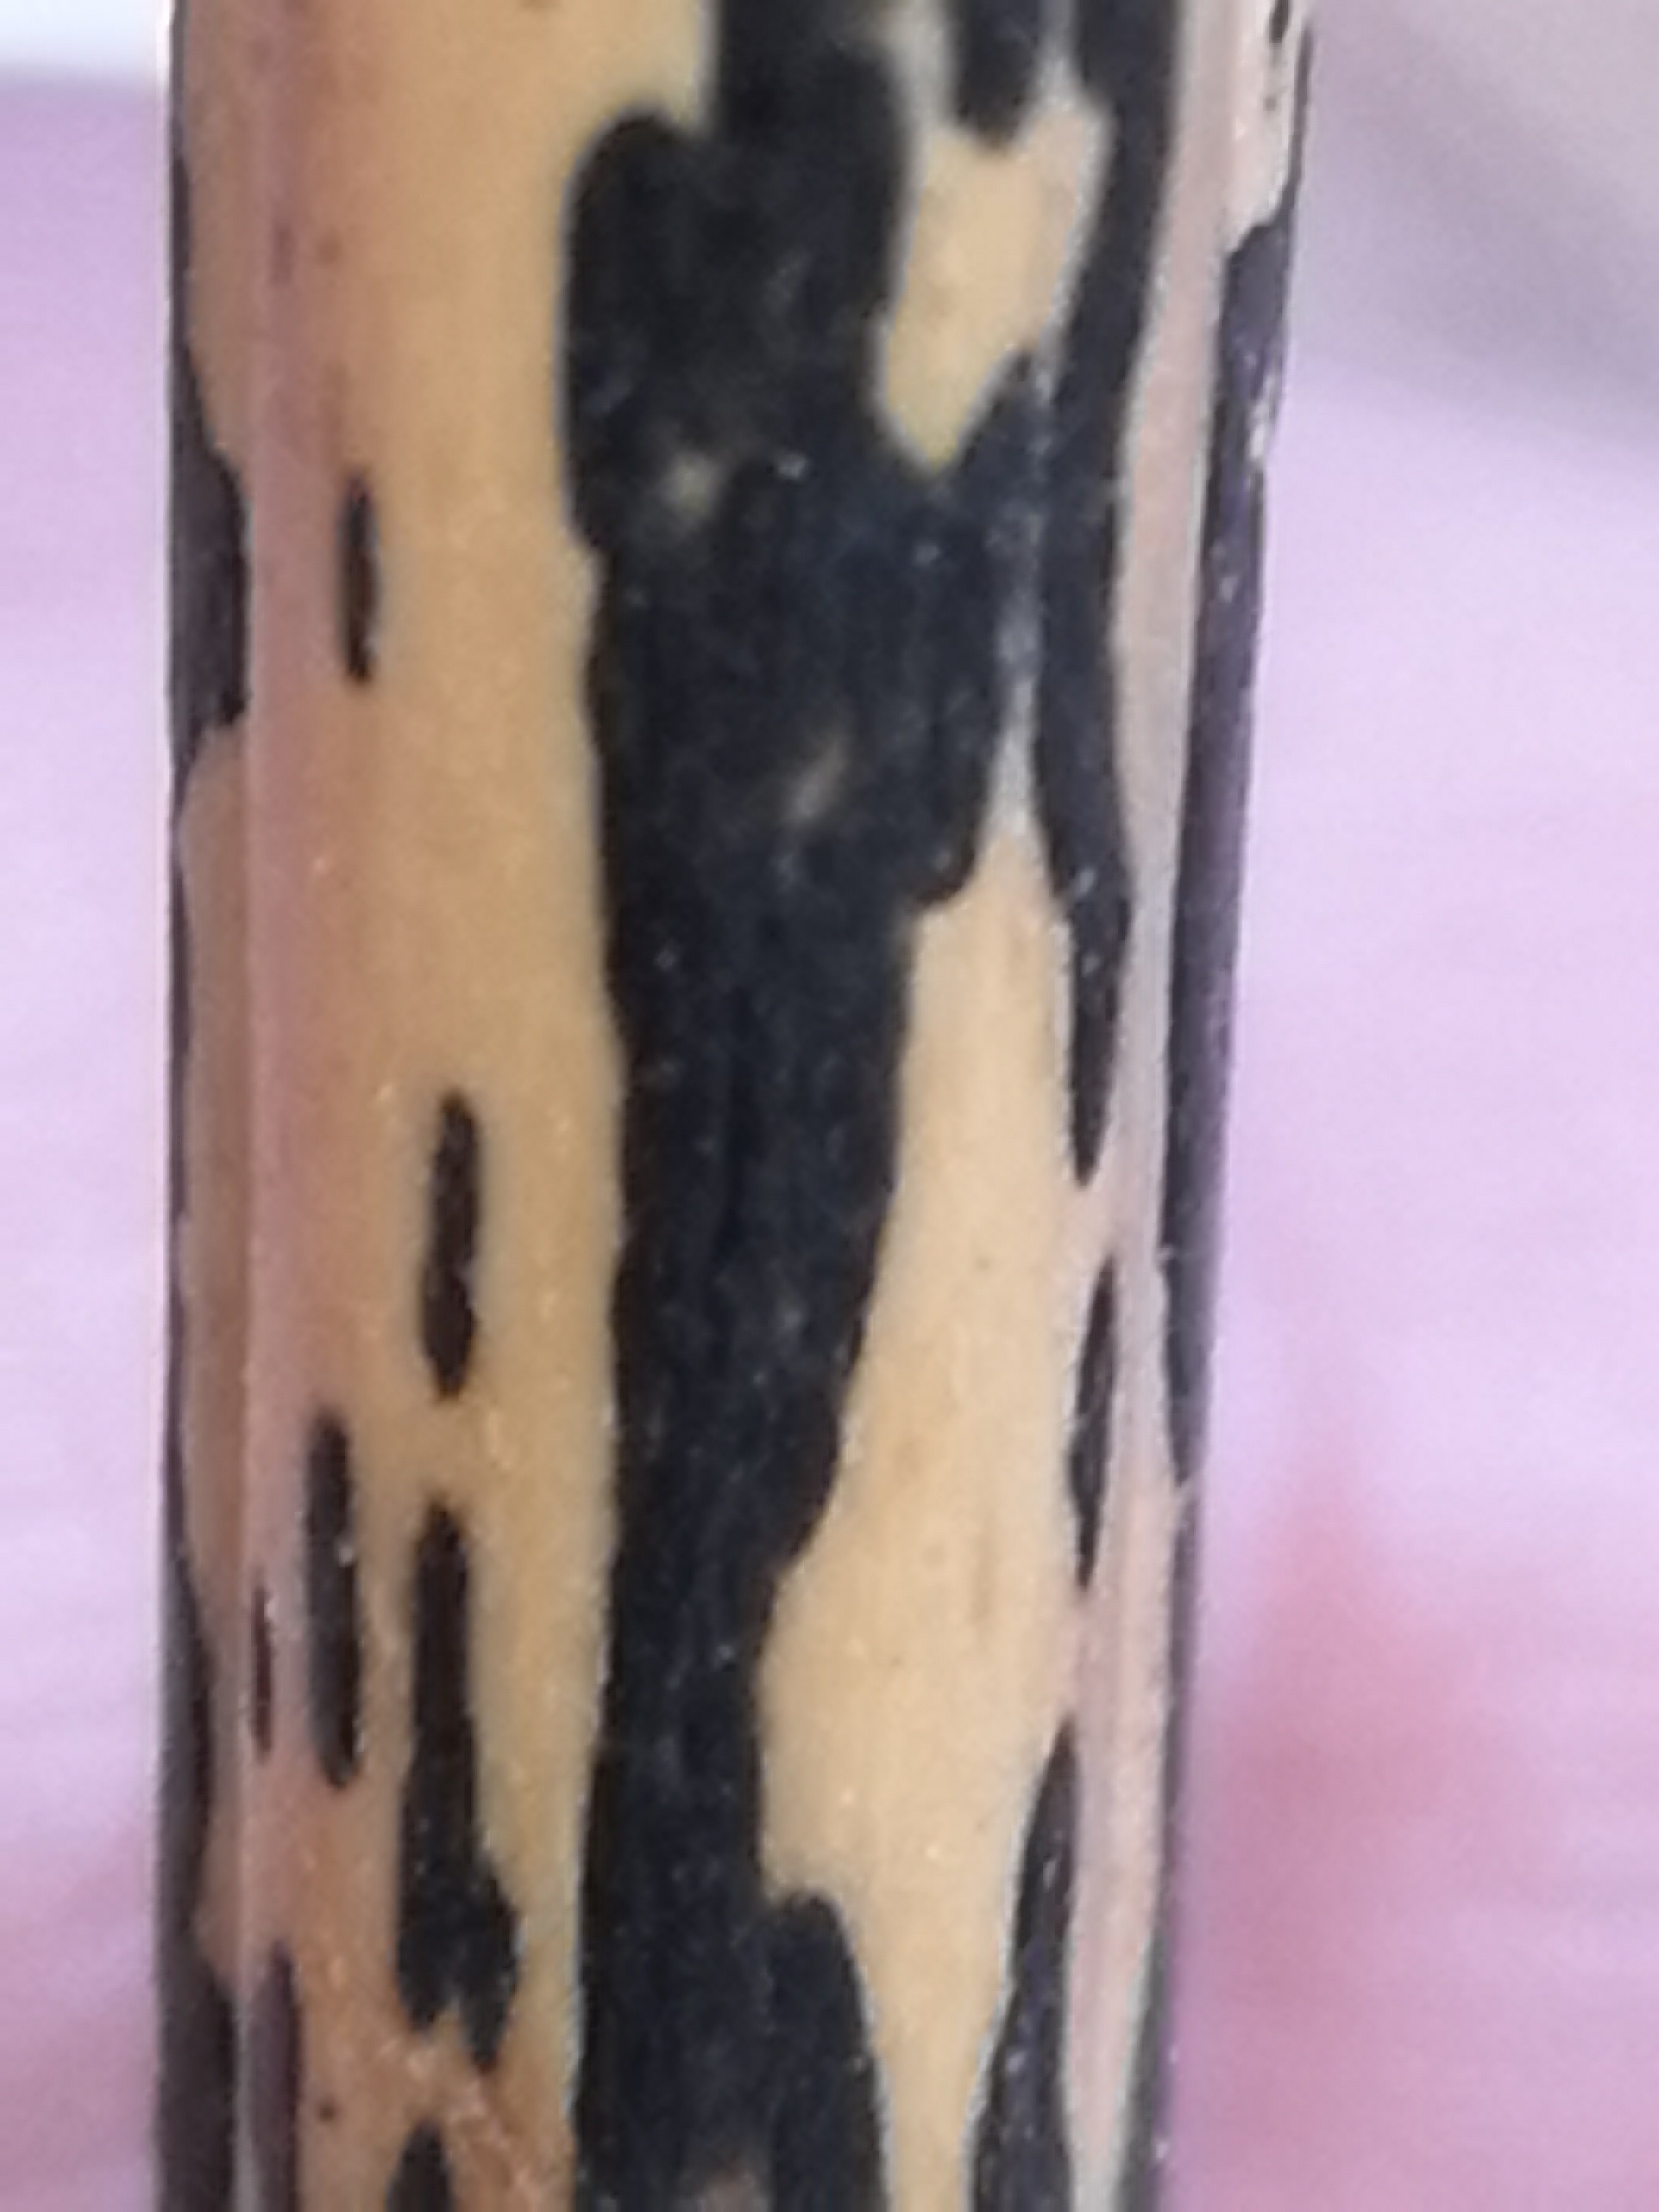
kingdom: Fungi
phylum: Ascomycota
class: Dothideomycetes
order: Pleosporales
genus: Rhopographus
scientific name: Rhopographus filicinus
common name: Bracken map
